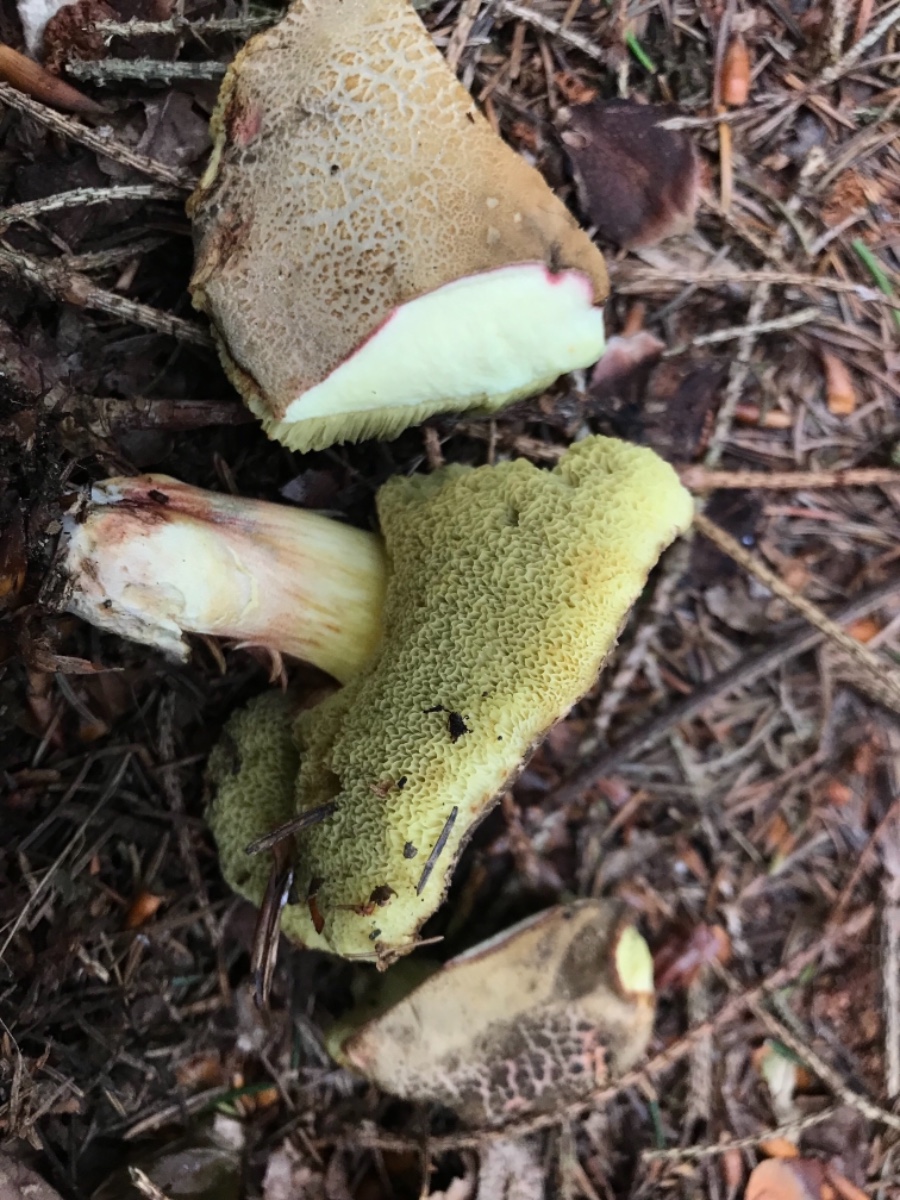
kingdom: Fungi
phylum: Basidiomycota
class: Agaricomycetes
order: Boletales
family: Boletaceae
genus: Xerocomellus
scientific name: Xerocomellus
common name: dværgrørhat
